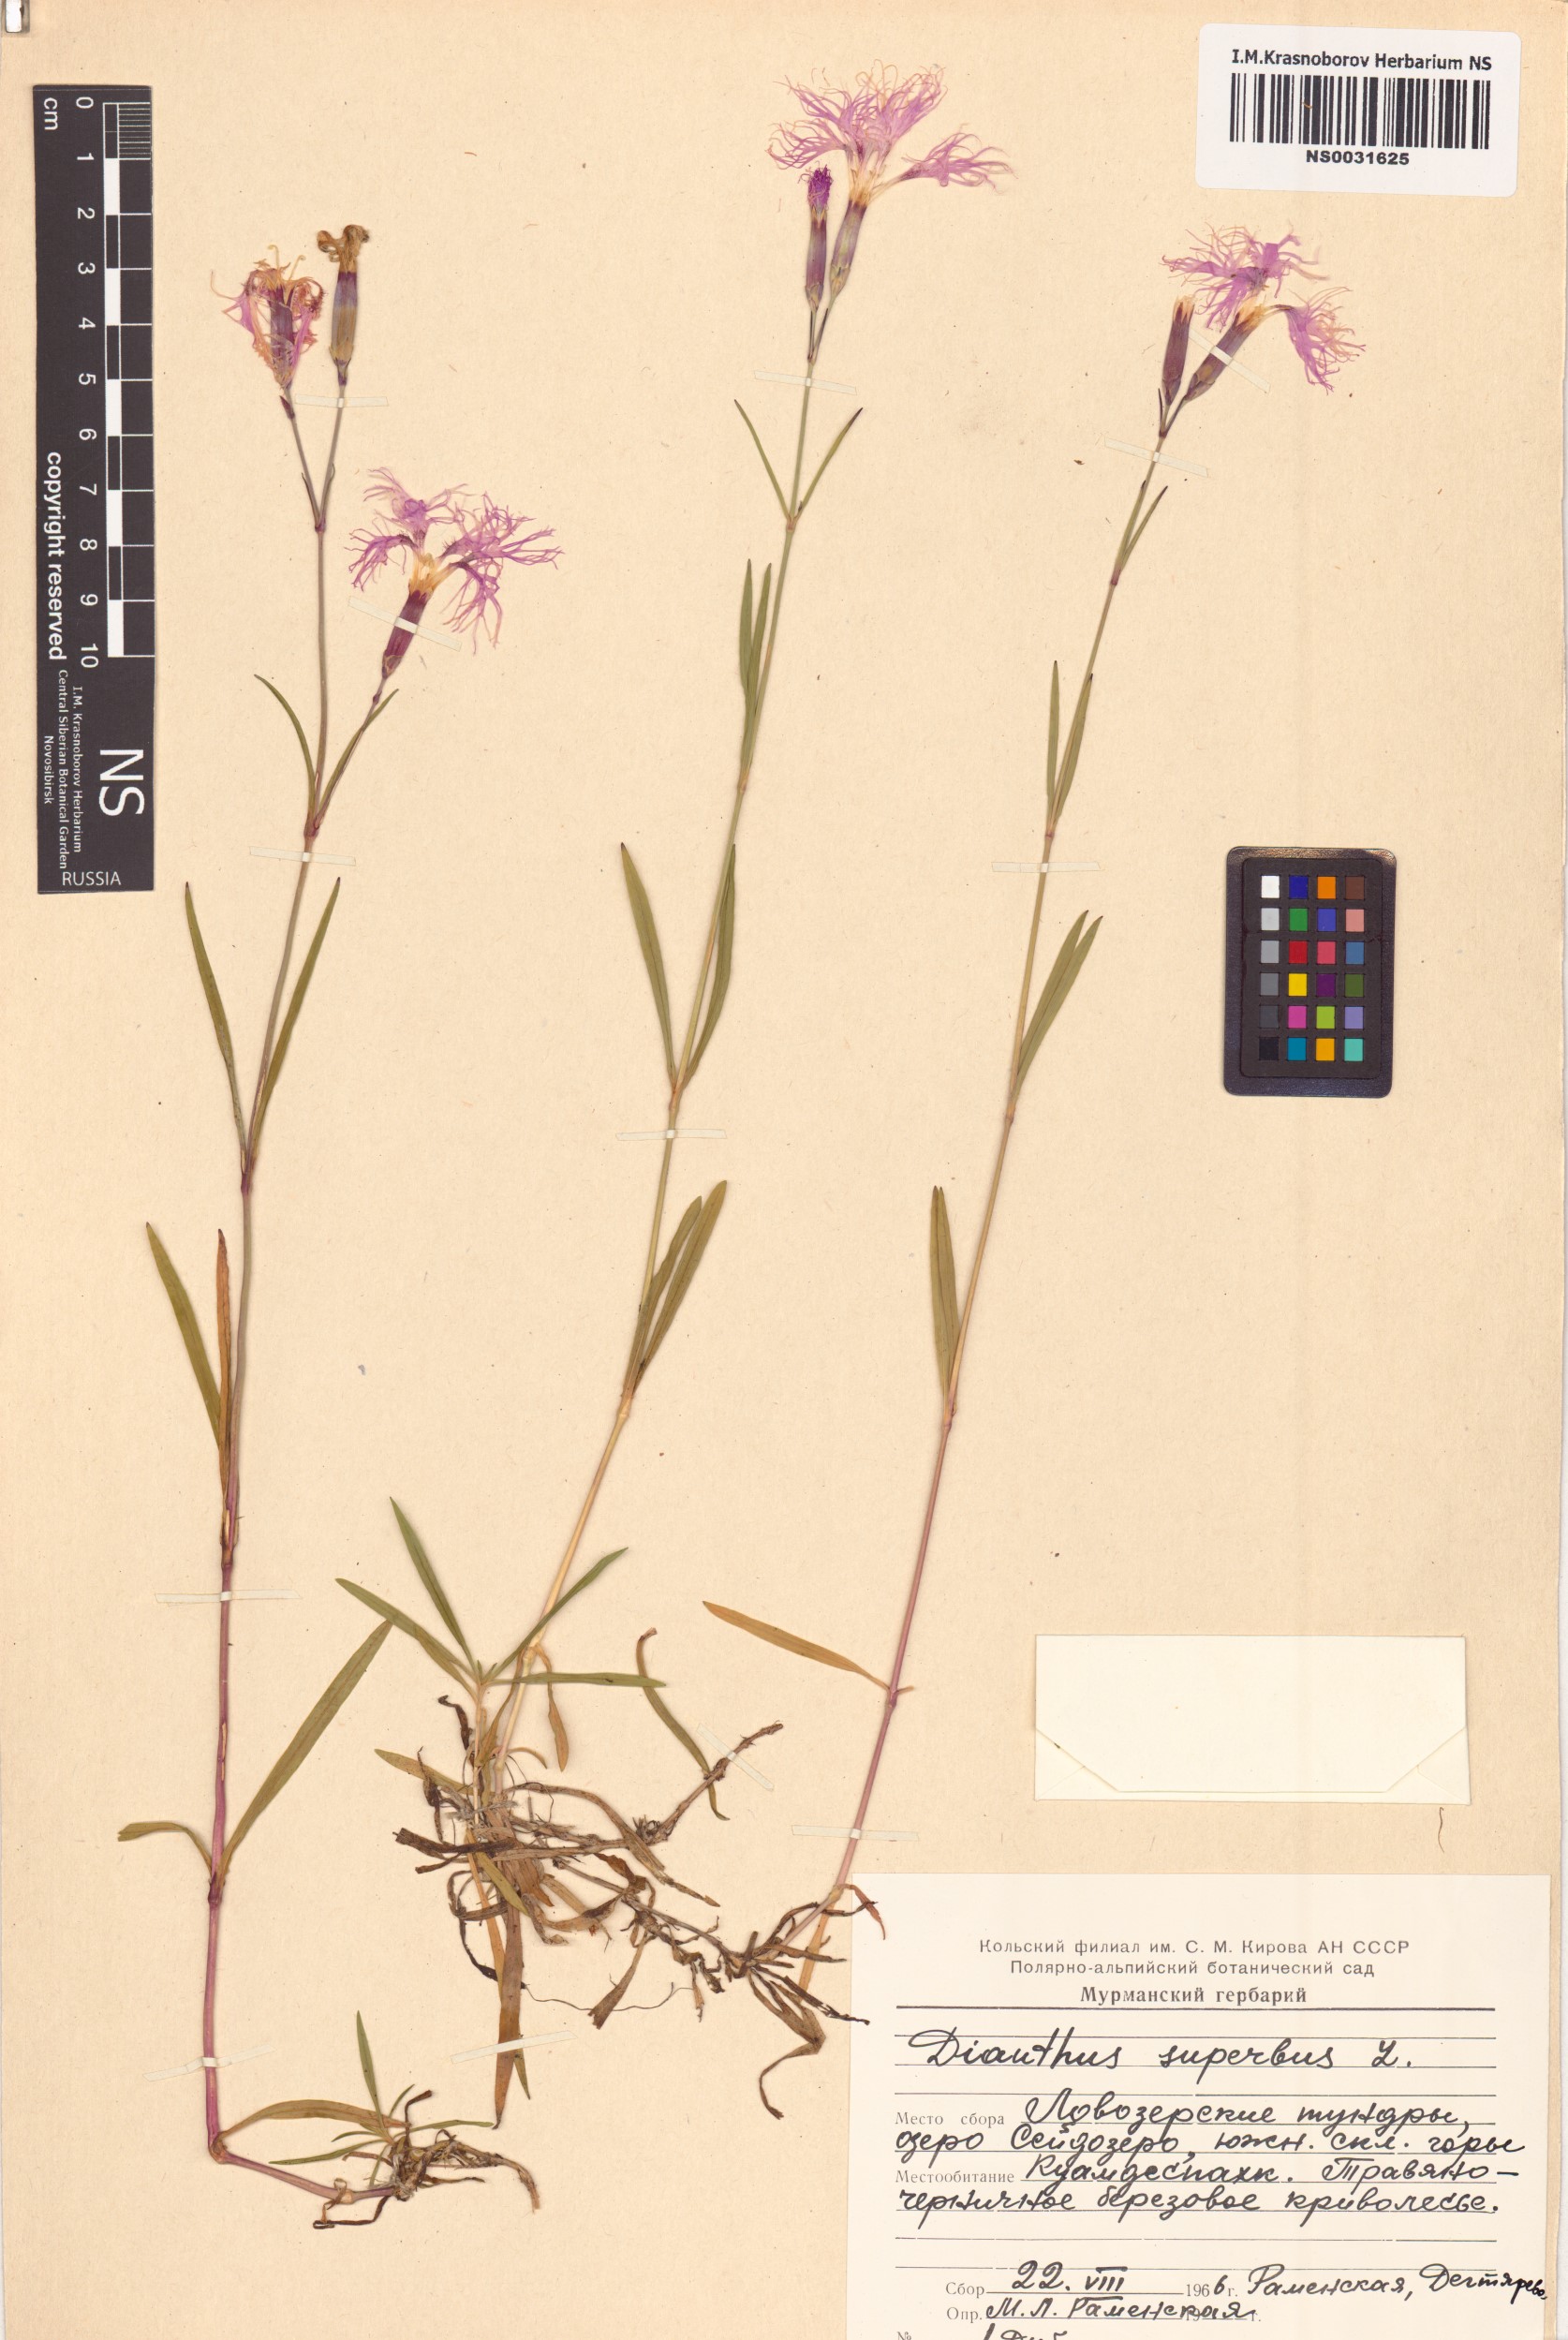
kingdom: Plantae
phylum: Tracheophyta
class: Magnoliopsida
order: Caryophyllales
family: Caryophyllaceae
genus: Dianthus
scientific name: Dianthus superbus
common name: Fringed pink
